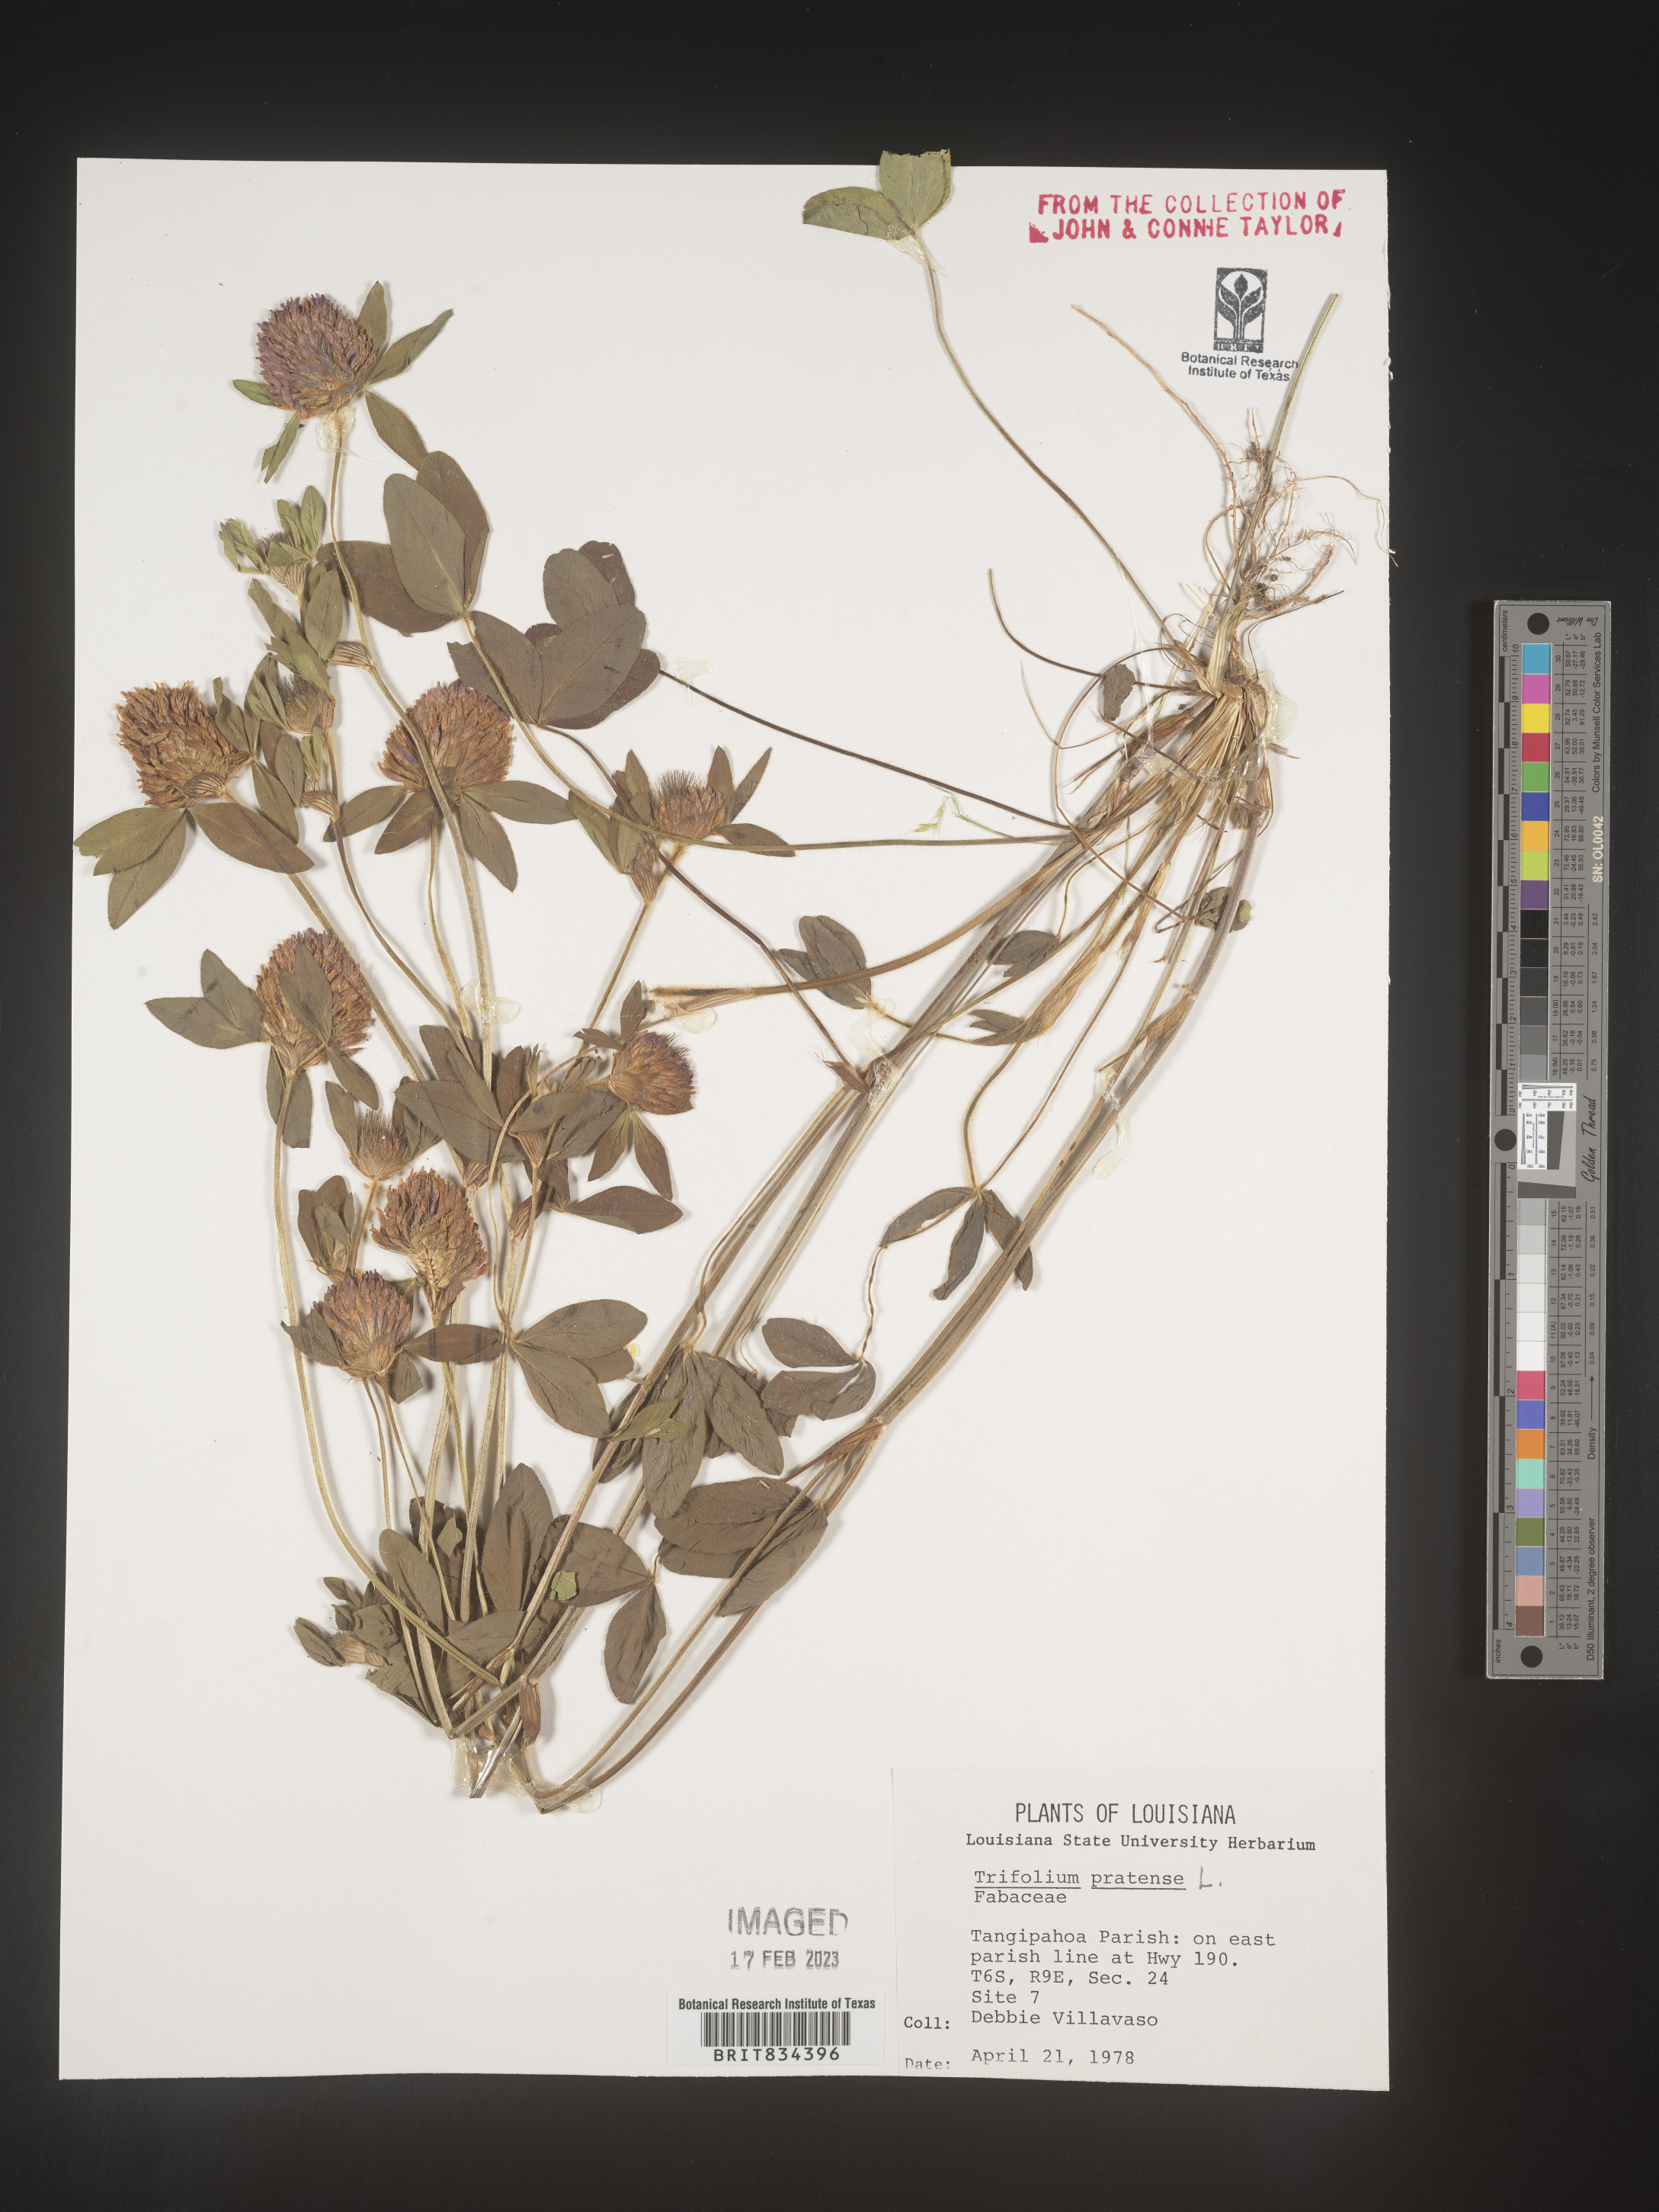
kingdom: Plantae
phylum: Tracheophyta
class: Magnoliopsida
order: Fabales
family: Fabaceae
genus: Trifolium
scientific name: Trifolium pratense
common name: Red clover
